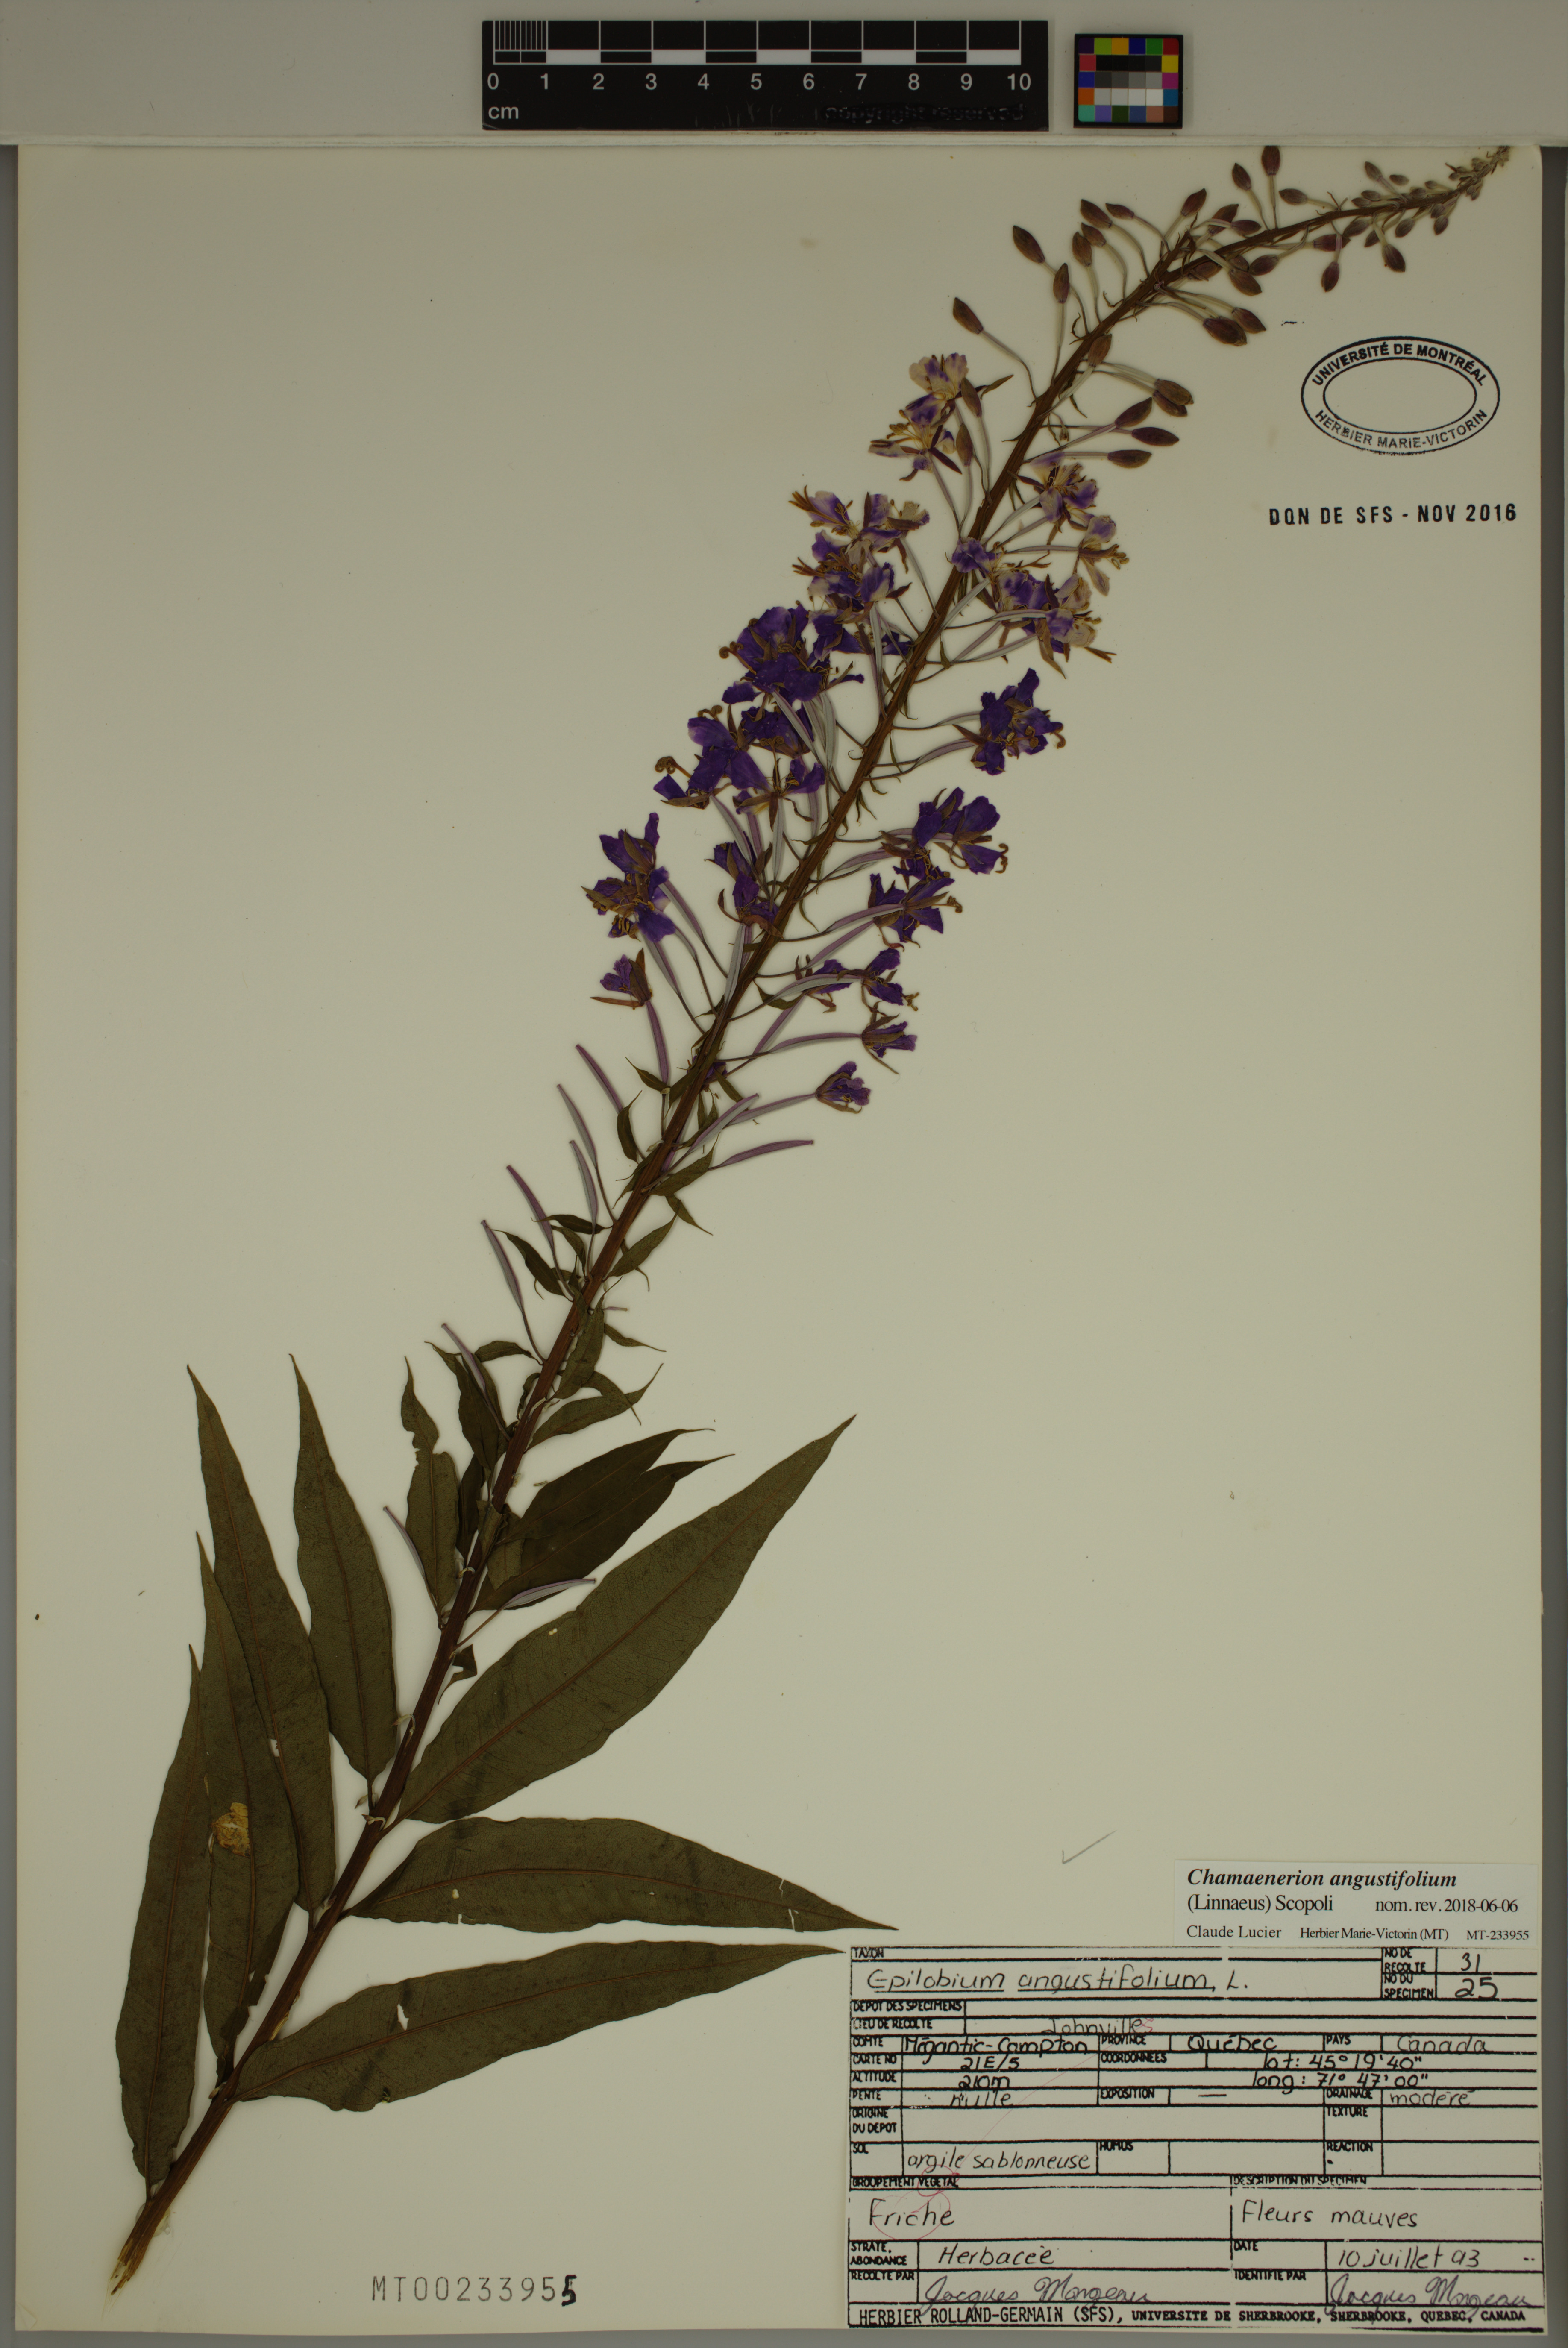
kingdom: Plantae
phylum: Tracheophyta
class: Magnoliopsida
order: Myrtales
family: Onagraceae
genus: Chamaenerion
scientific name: Chamaenerion angustifolium
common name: Fireweed
